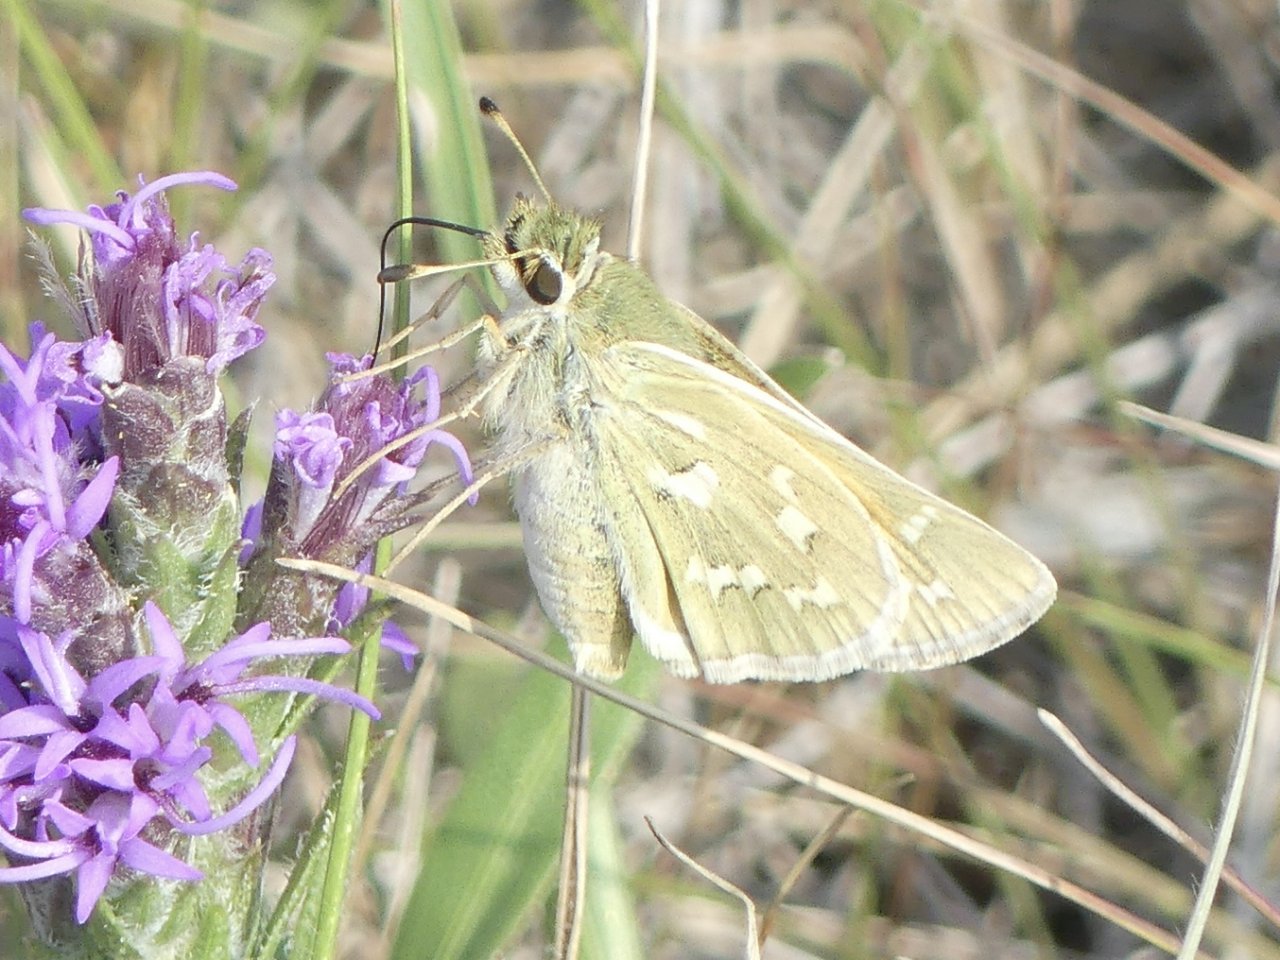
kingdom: Animalia
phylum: Arthropoda
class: Insecta
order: Lepidoptera
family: Hesperiidae
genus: Hesperia
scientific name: Hesperia comma
